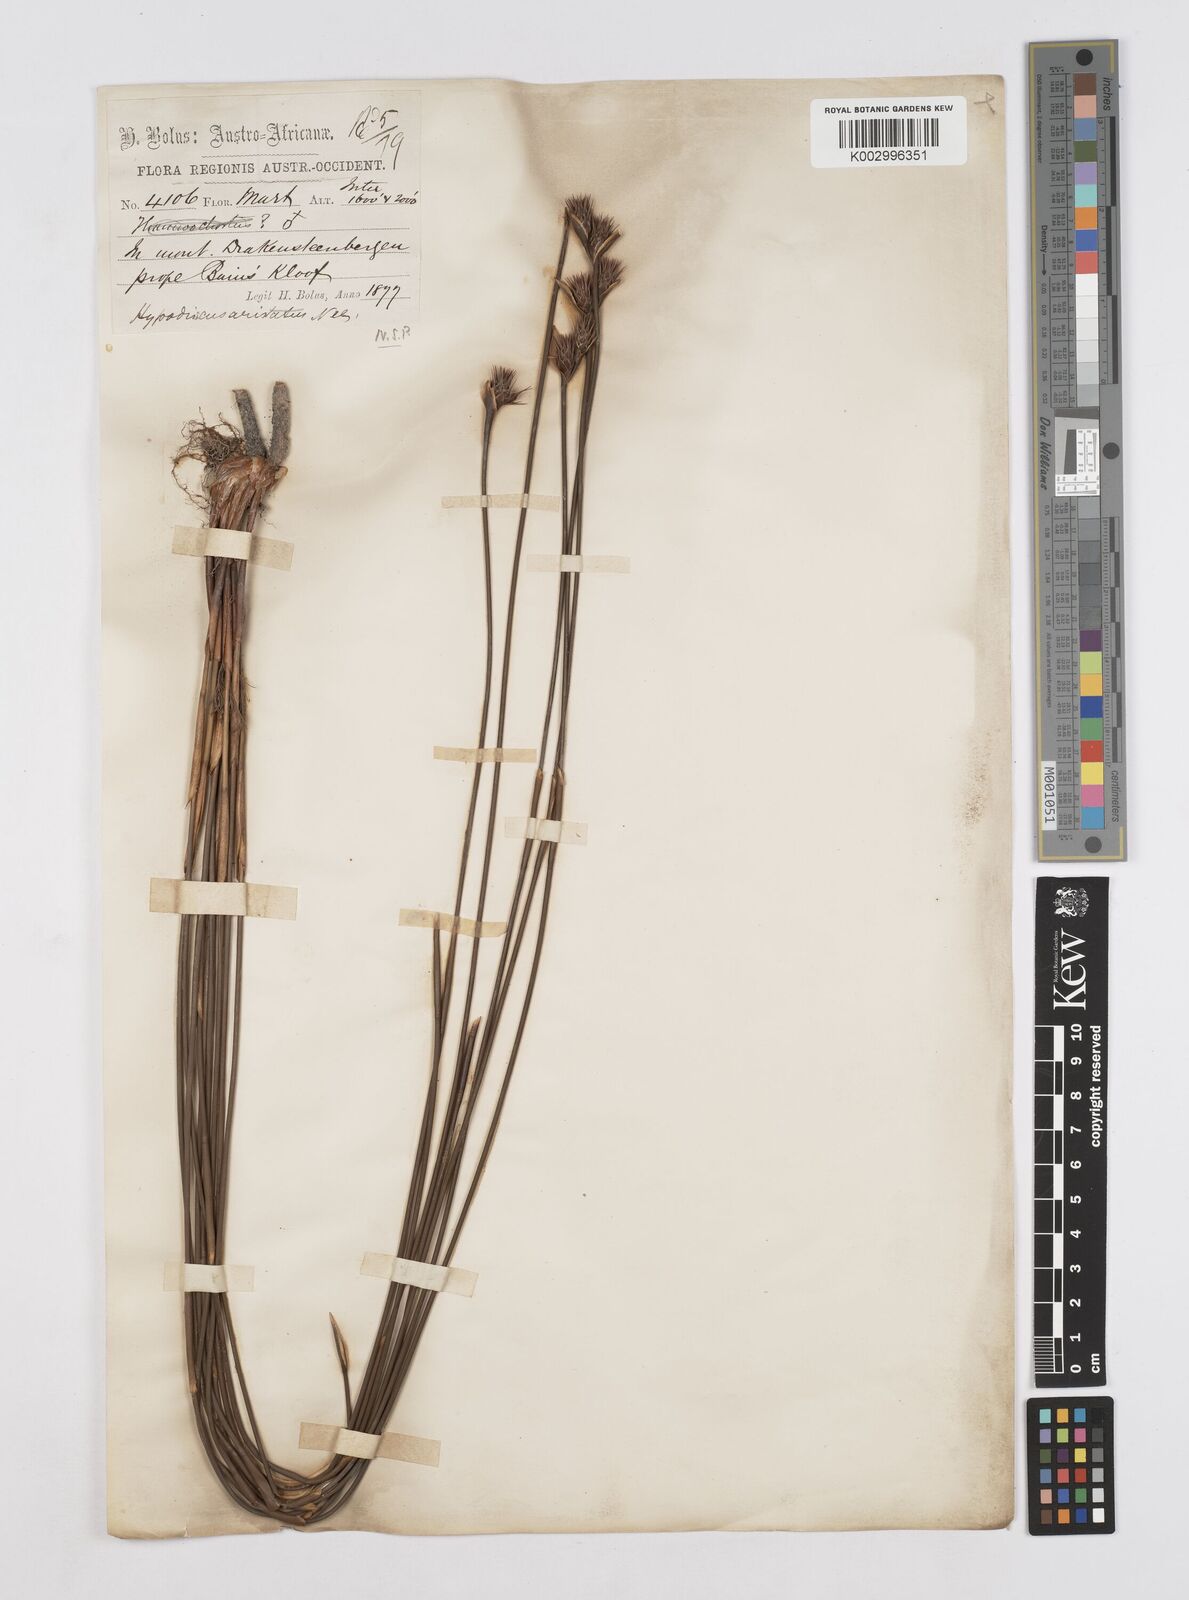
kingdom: Plantae
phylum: Tracheophyta
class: Liliopsida
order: Poales
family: Restionaceae
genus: Hypodiscus
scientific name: Hypodiscus aristatus
